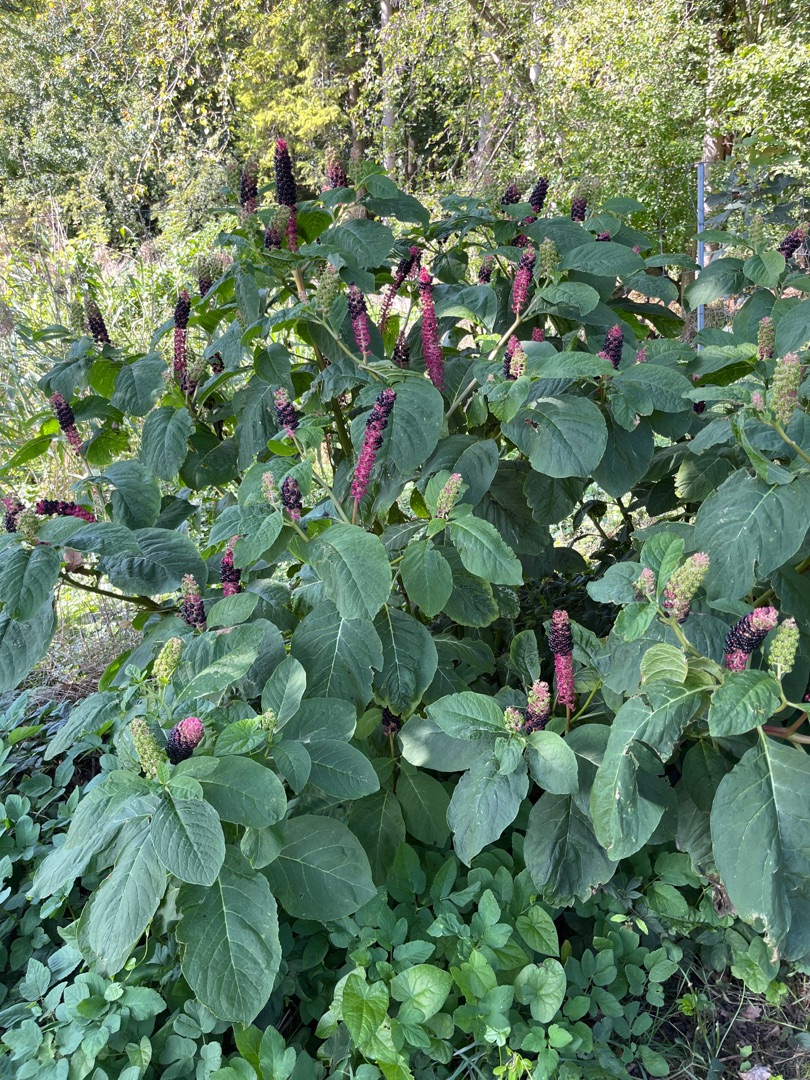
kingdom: Plantae
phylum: Tracheophyta
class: Magnoliopsida
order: Caryophyllales
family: Phytolaccaceae
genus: Phytolacca
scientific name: Phytolacca acinosa
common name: Asiatisk kermesbær
